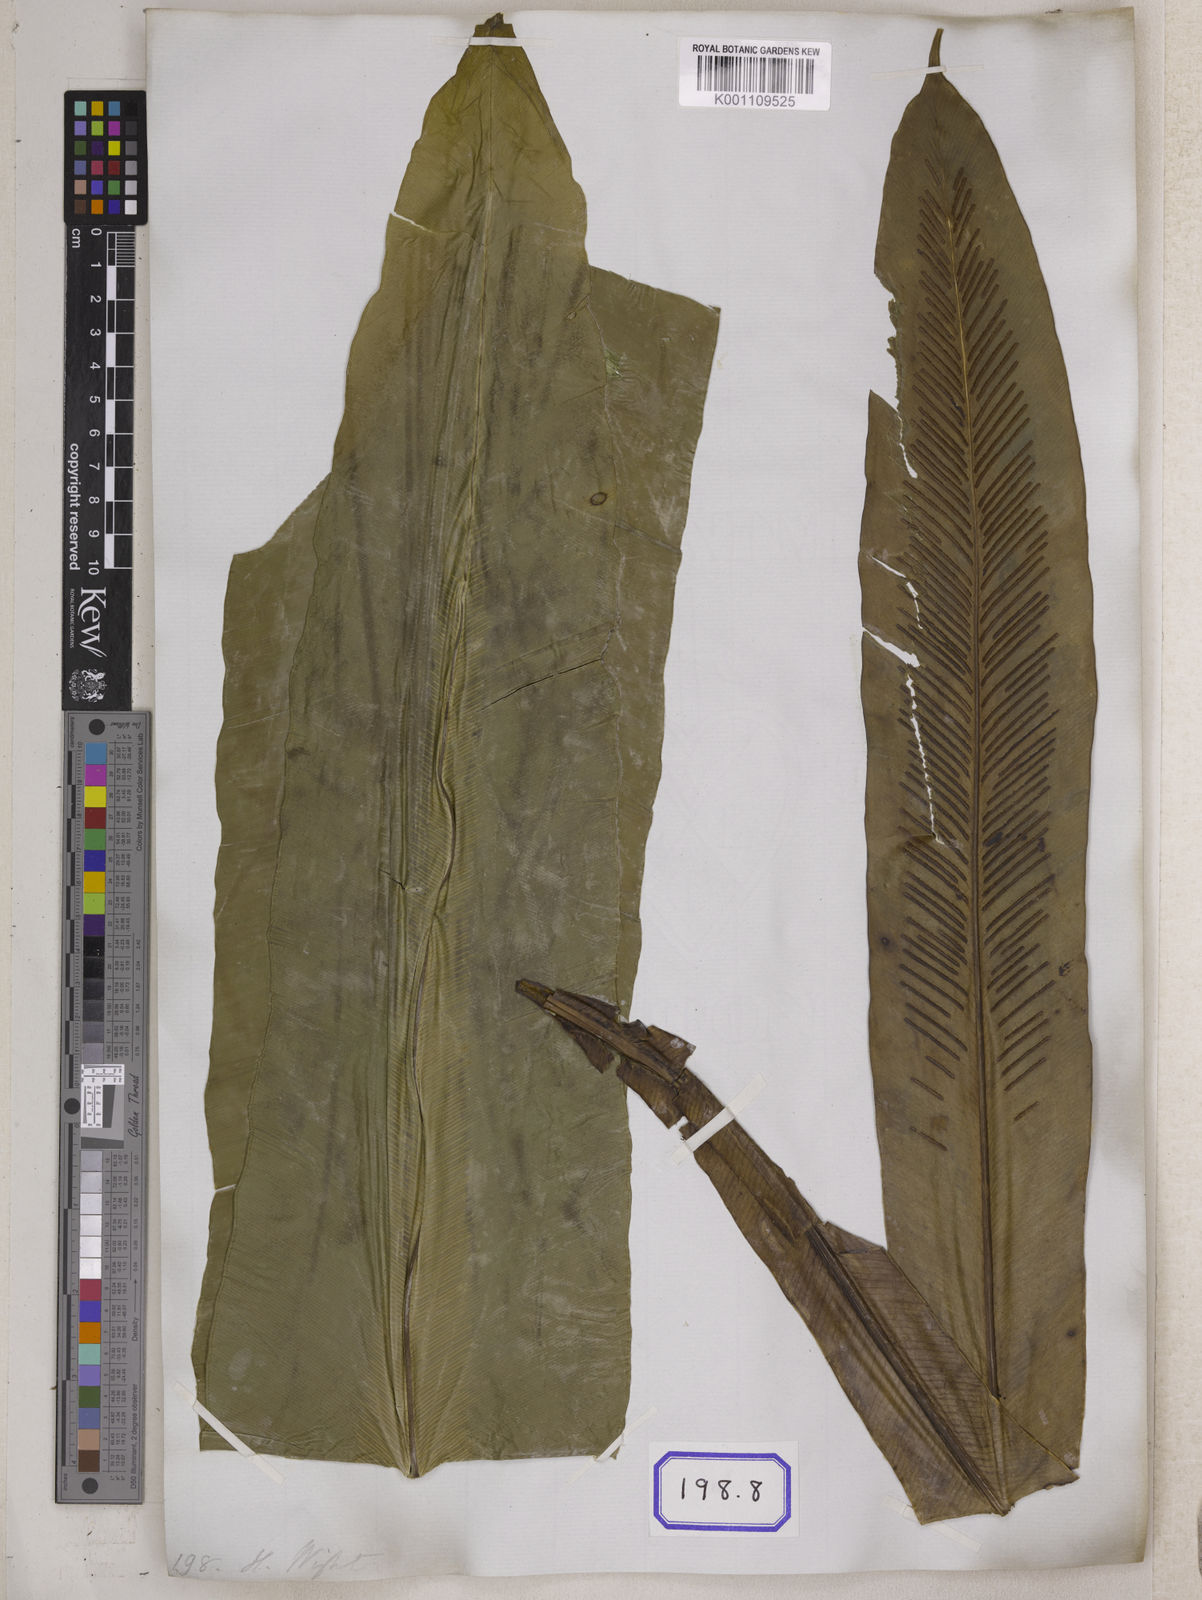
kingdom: Plantae
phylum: Tracheophyta
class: Polypodiopsida
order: Polypodiales
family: Aspleniaceae
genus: Asplenium
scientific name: Asplenium nidus
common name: Bird's-nest fern
